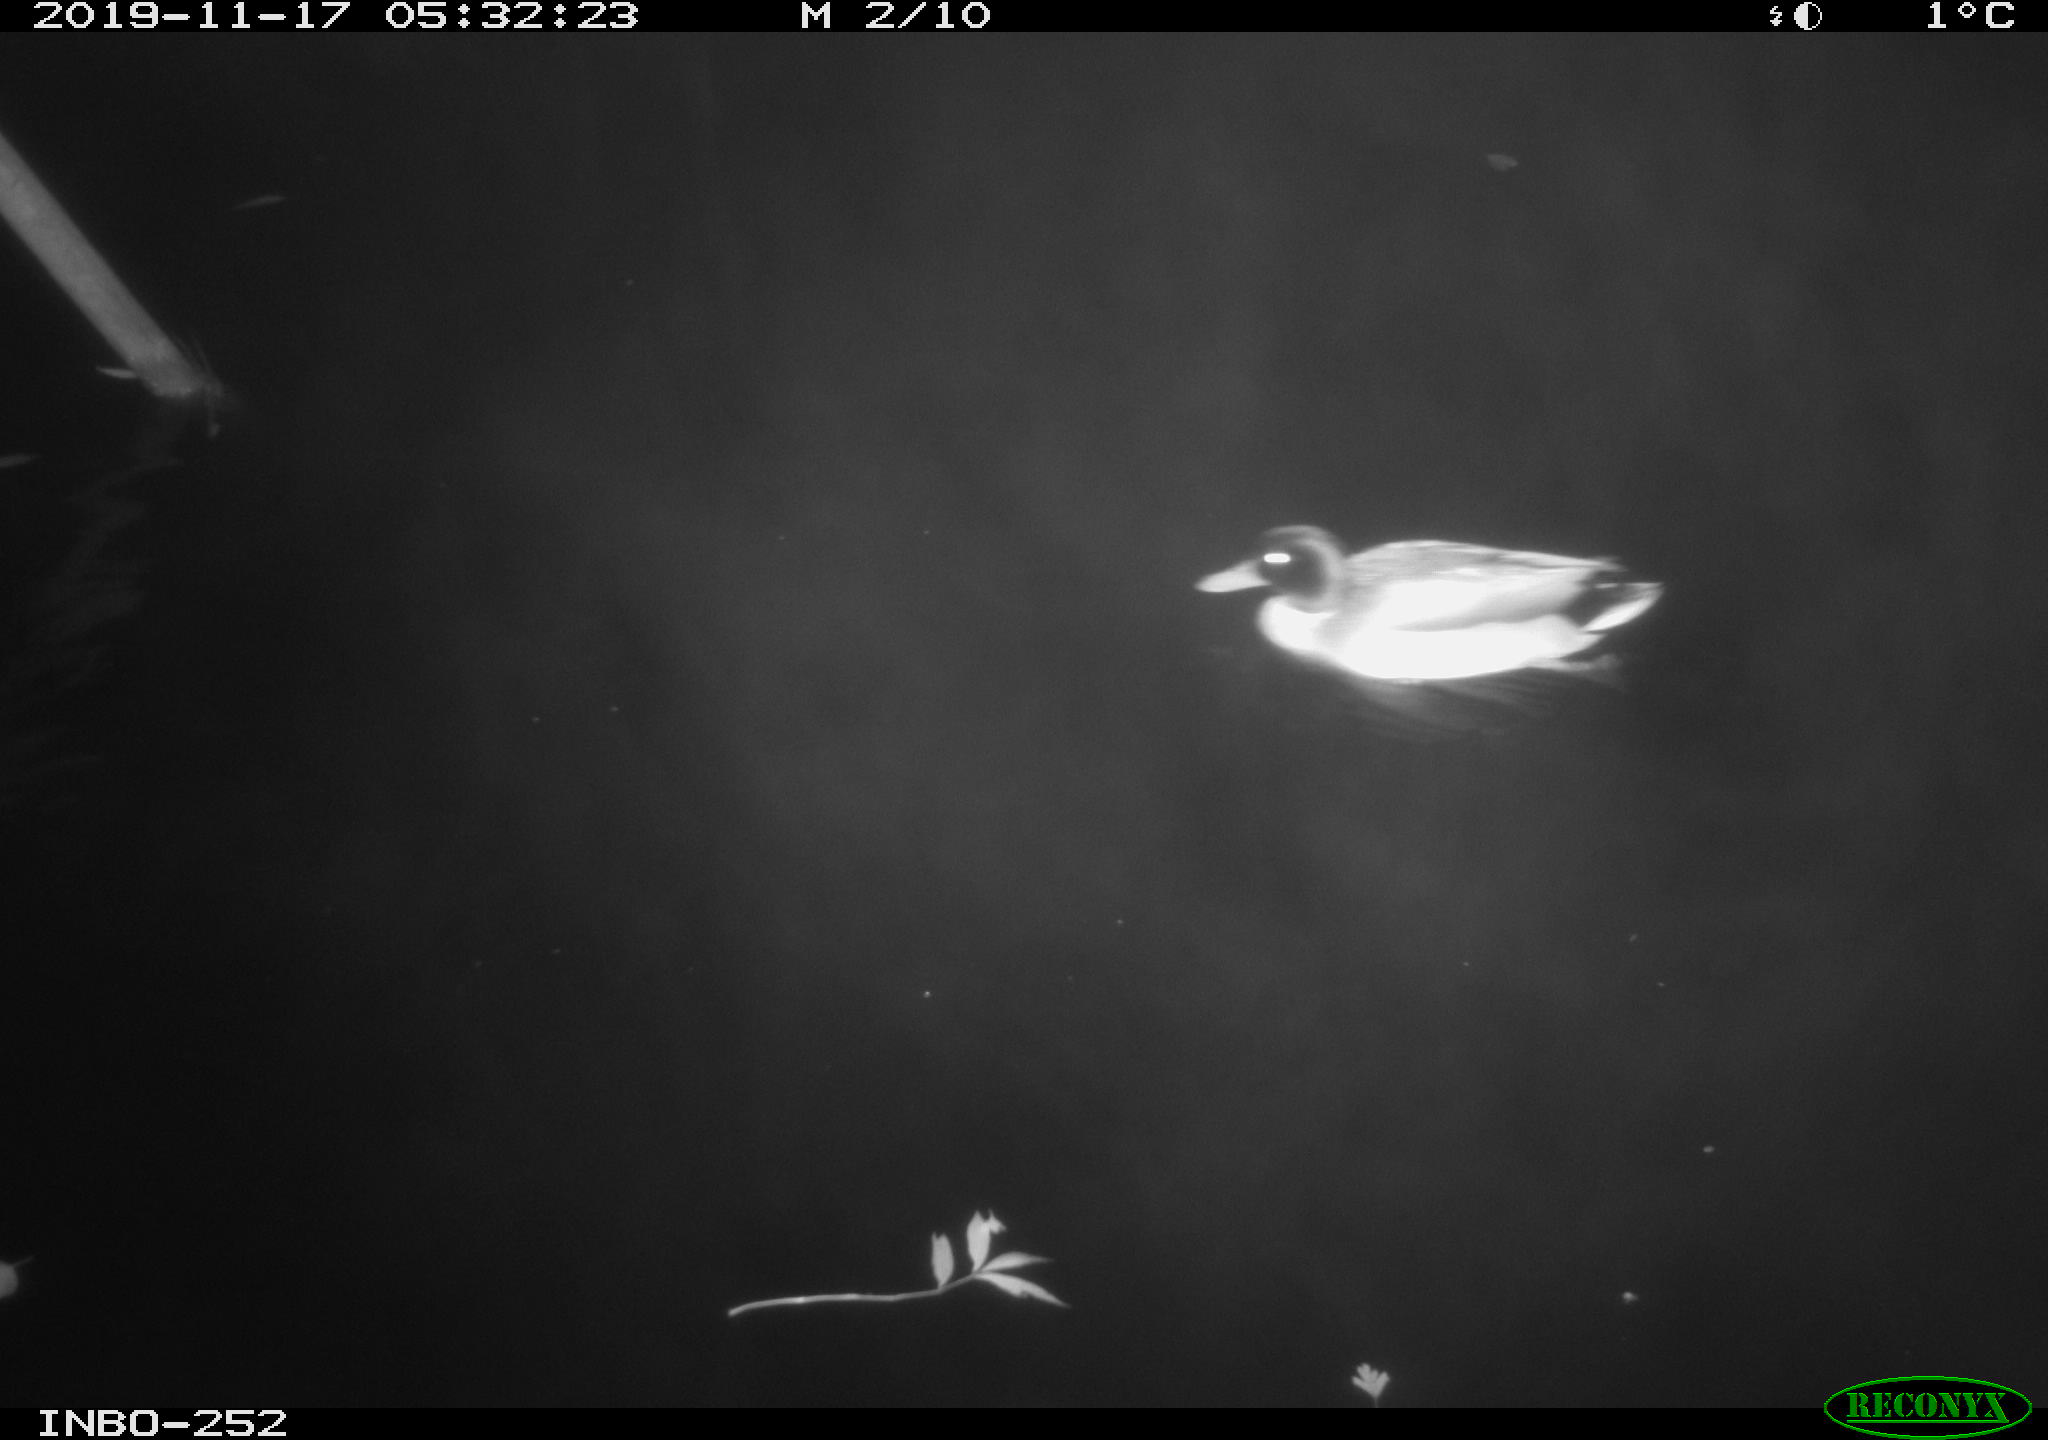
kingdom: Animalia
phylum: Chordata
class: Aves
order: Anseriformes
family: Anatidae
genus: Anas
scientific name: Anas platyrhynchos
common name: Mallard
